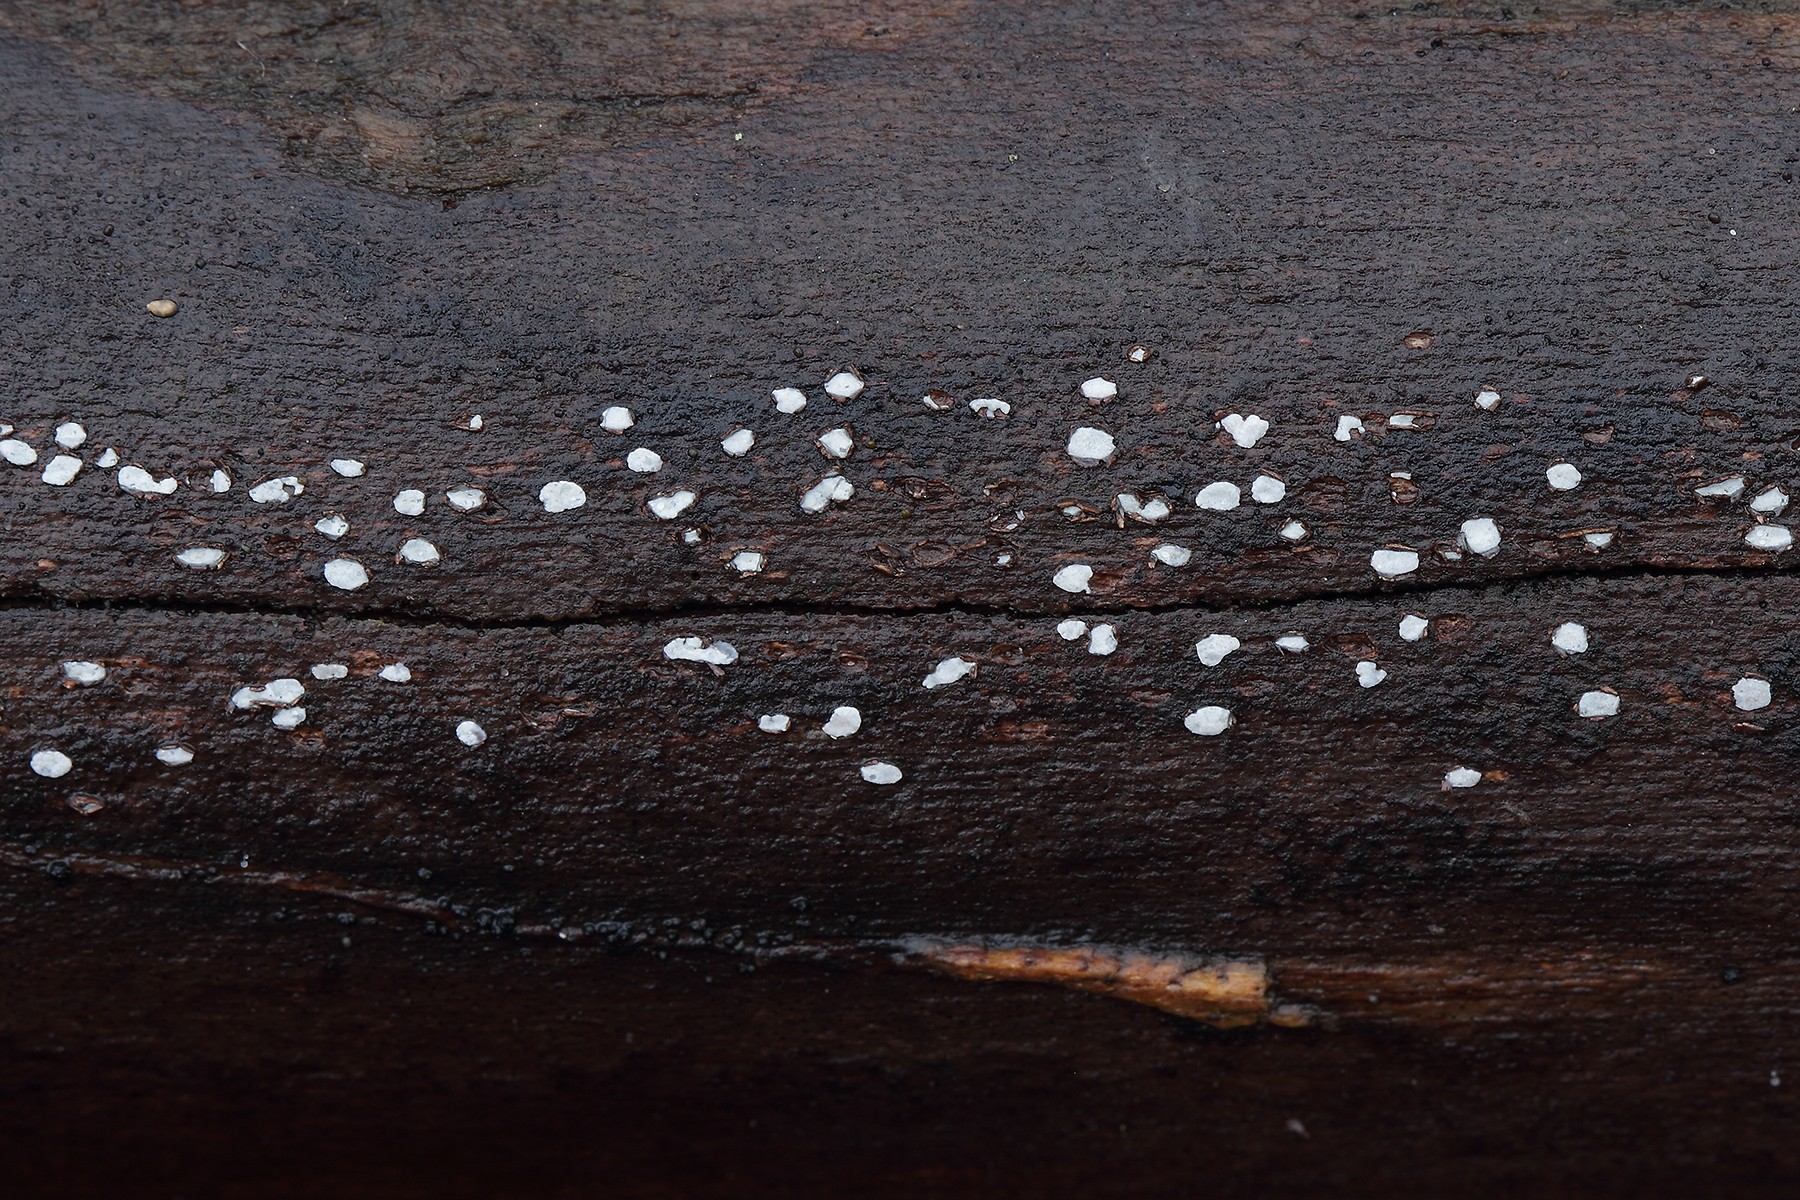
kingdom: Fungi
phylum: Ascomycota
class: Leotiomycetes
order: Chaetomellales
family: Marthamycetaceae
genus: Propolis
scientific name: Propolis farinosa
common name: almindelig vedsprængerskive
